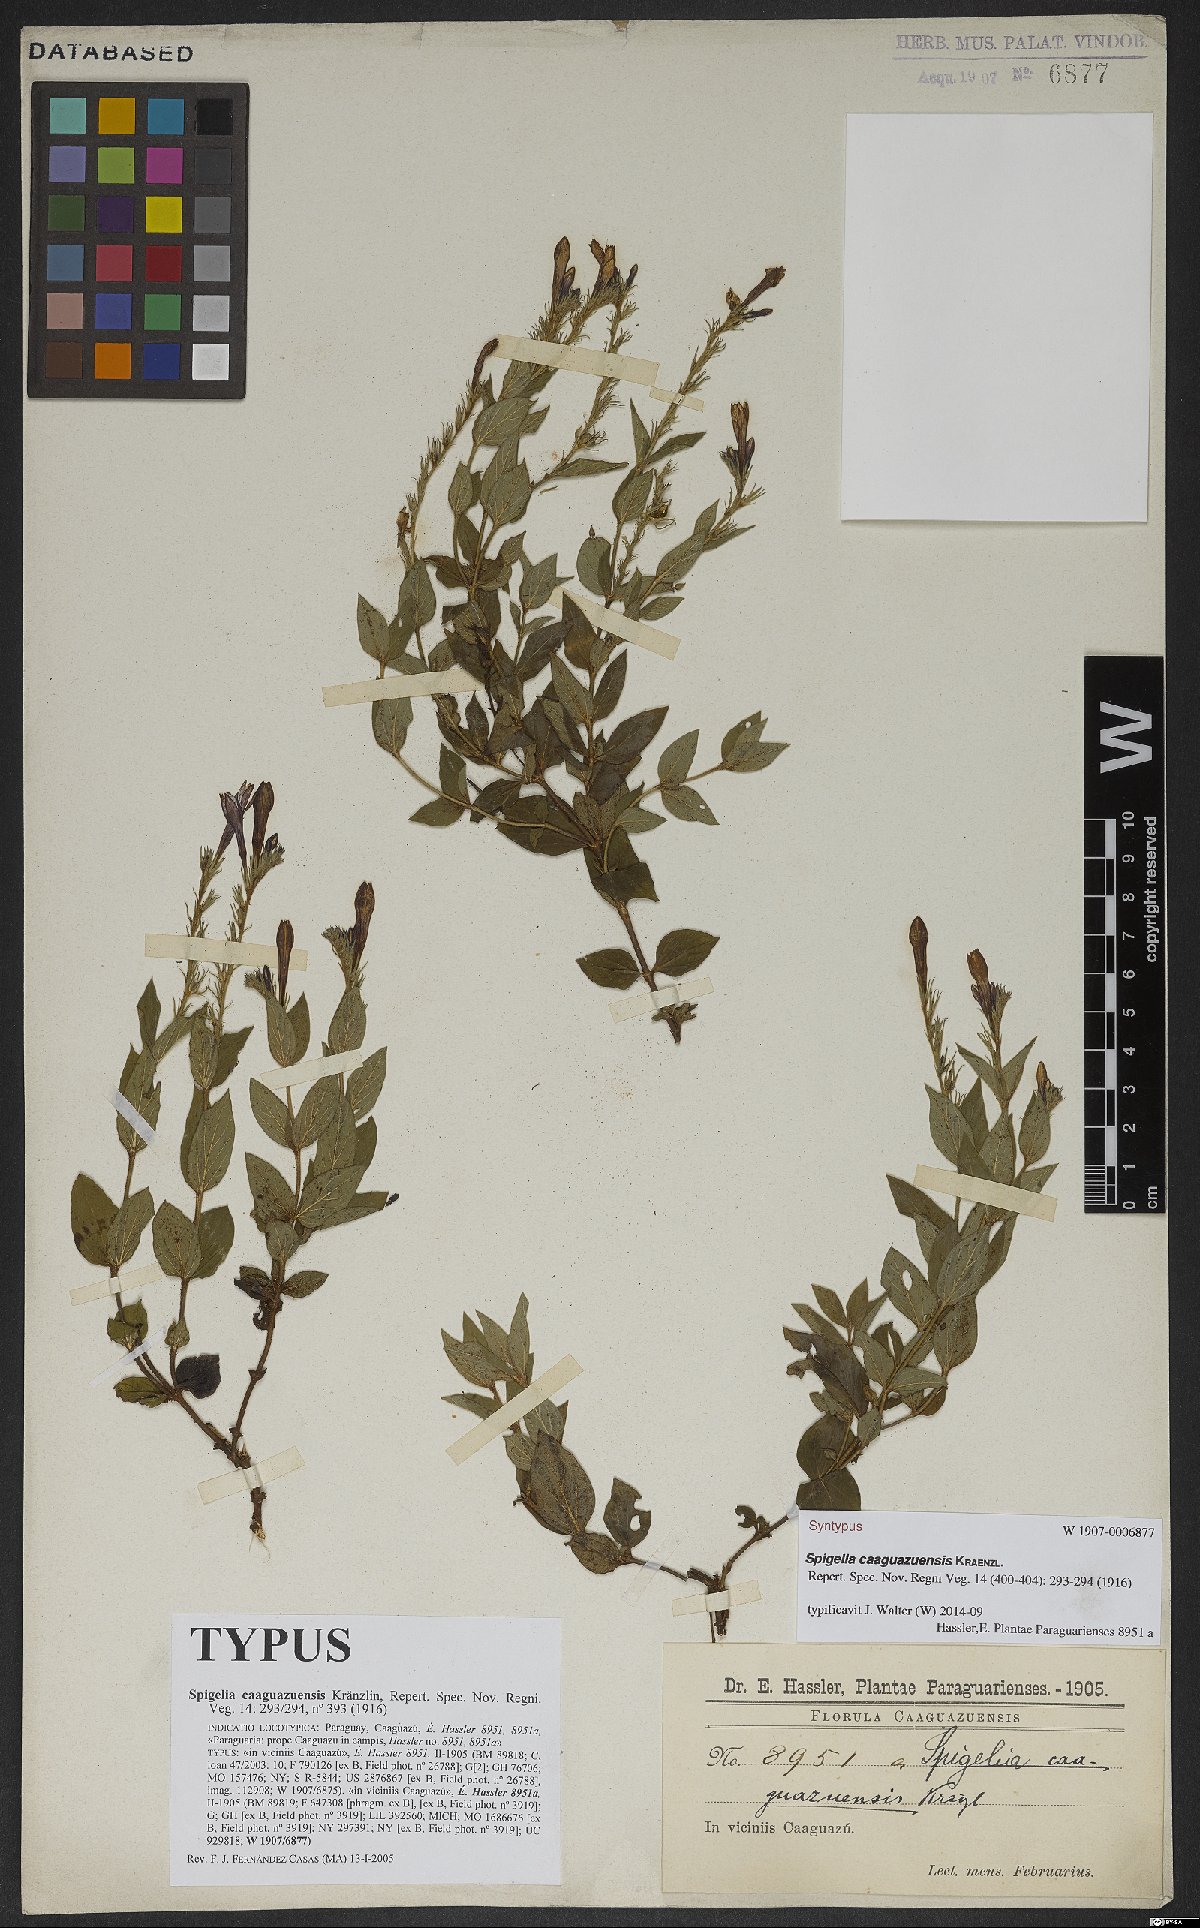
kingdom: Plantae
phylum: Tracheophyta
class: Magnoliopsida
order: Gentianales
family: Loganiaceae
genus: Spigelia
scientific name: Spigelia caaguazuensis
